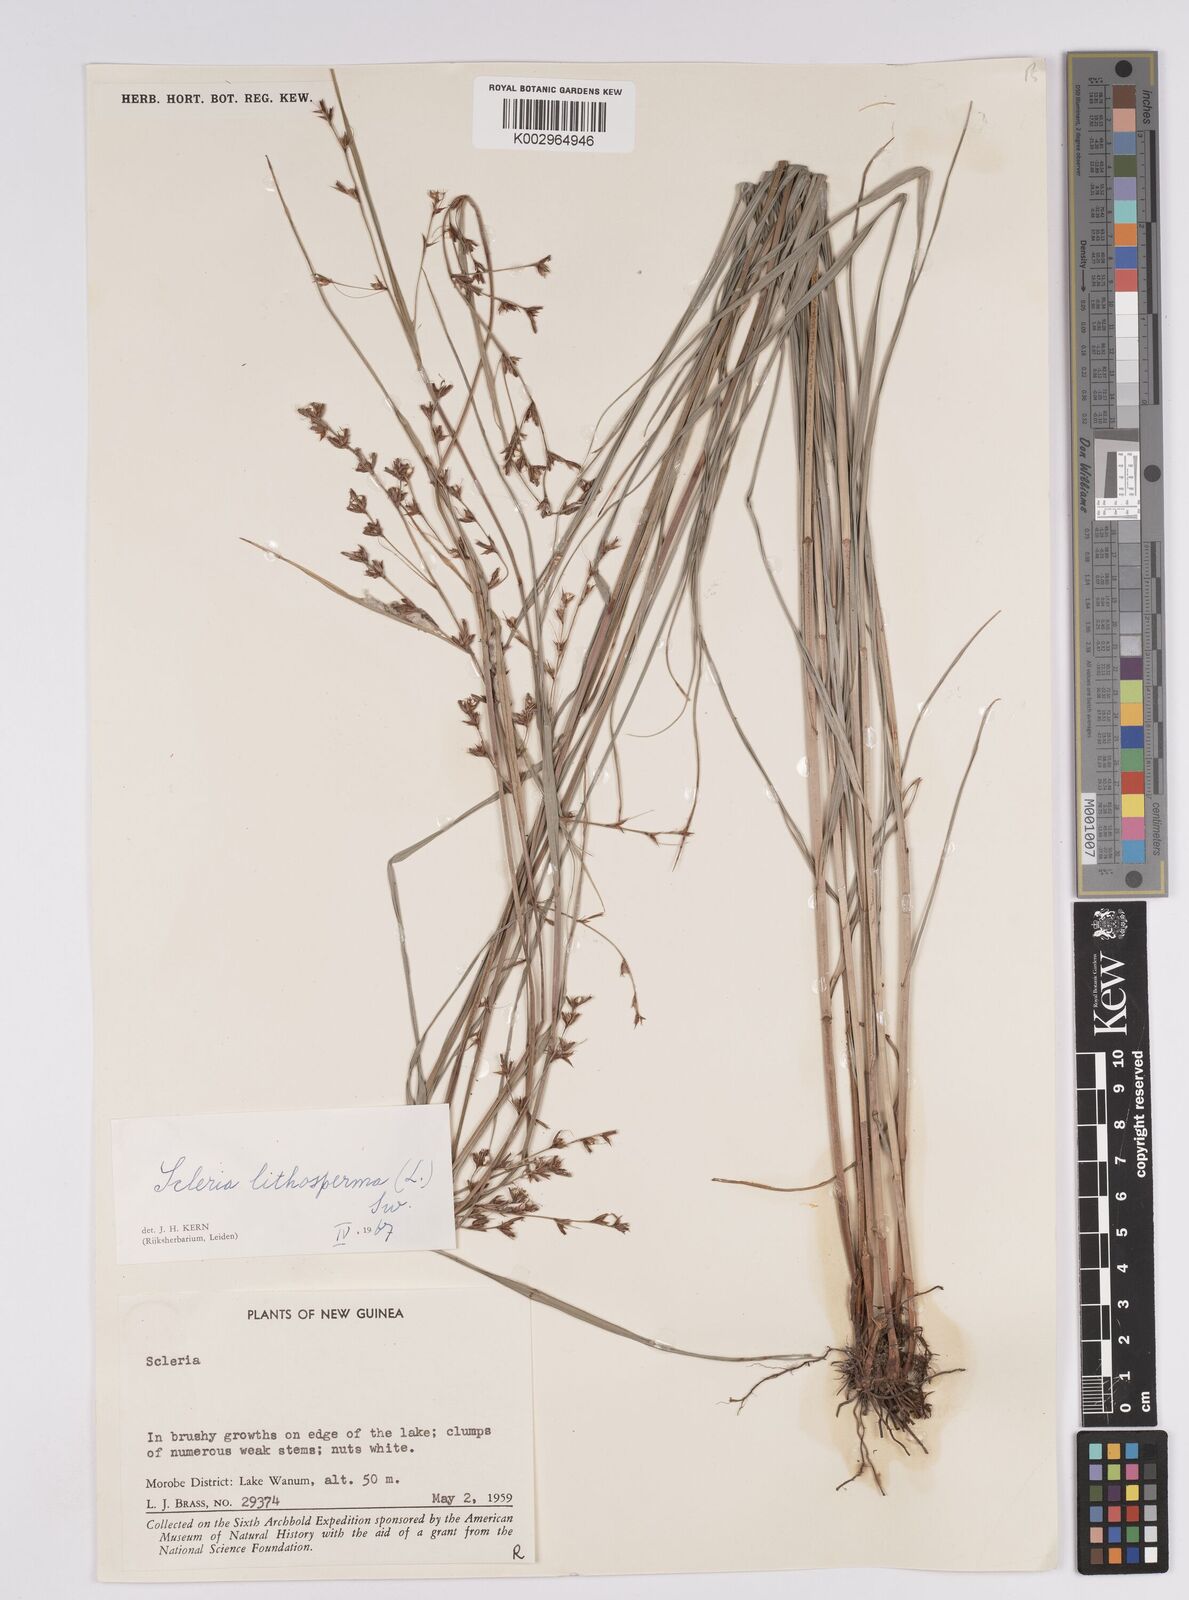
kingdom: Plantae
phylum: Tracheophyta
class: Liliopsida
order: Poales
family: Cyperaceae
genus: Scleria
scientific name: Scleria lithosperma
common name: Florida keys nut-rush
